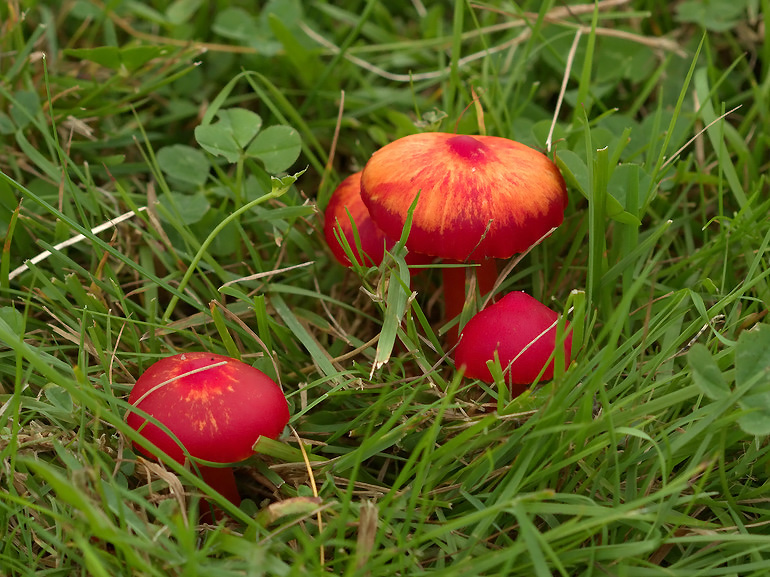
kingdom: Fungi
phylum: Basidiomycota
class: Agaricomycetes
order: Agaricales
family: Hygrophoraceae
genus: Hygrocybe
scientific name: Hygrocybe coccinea
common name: cinnober-vokshat
